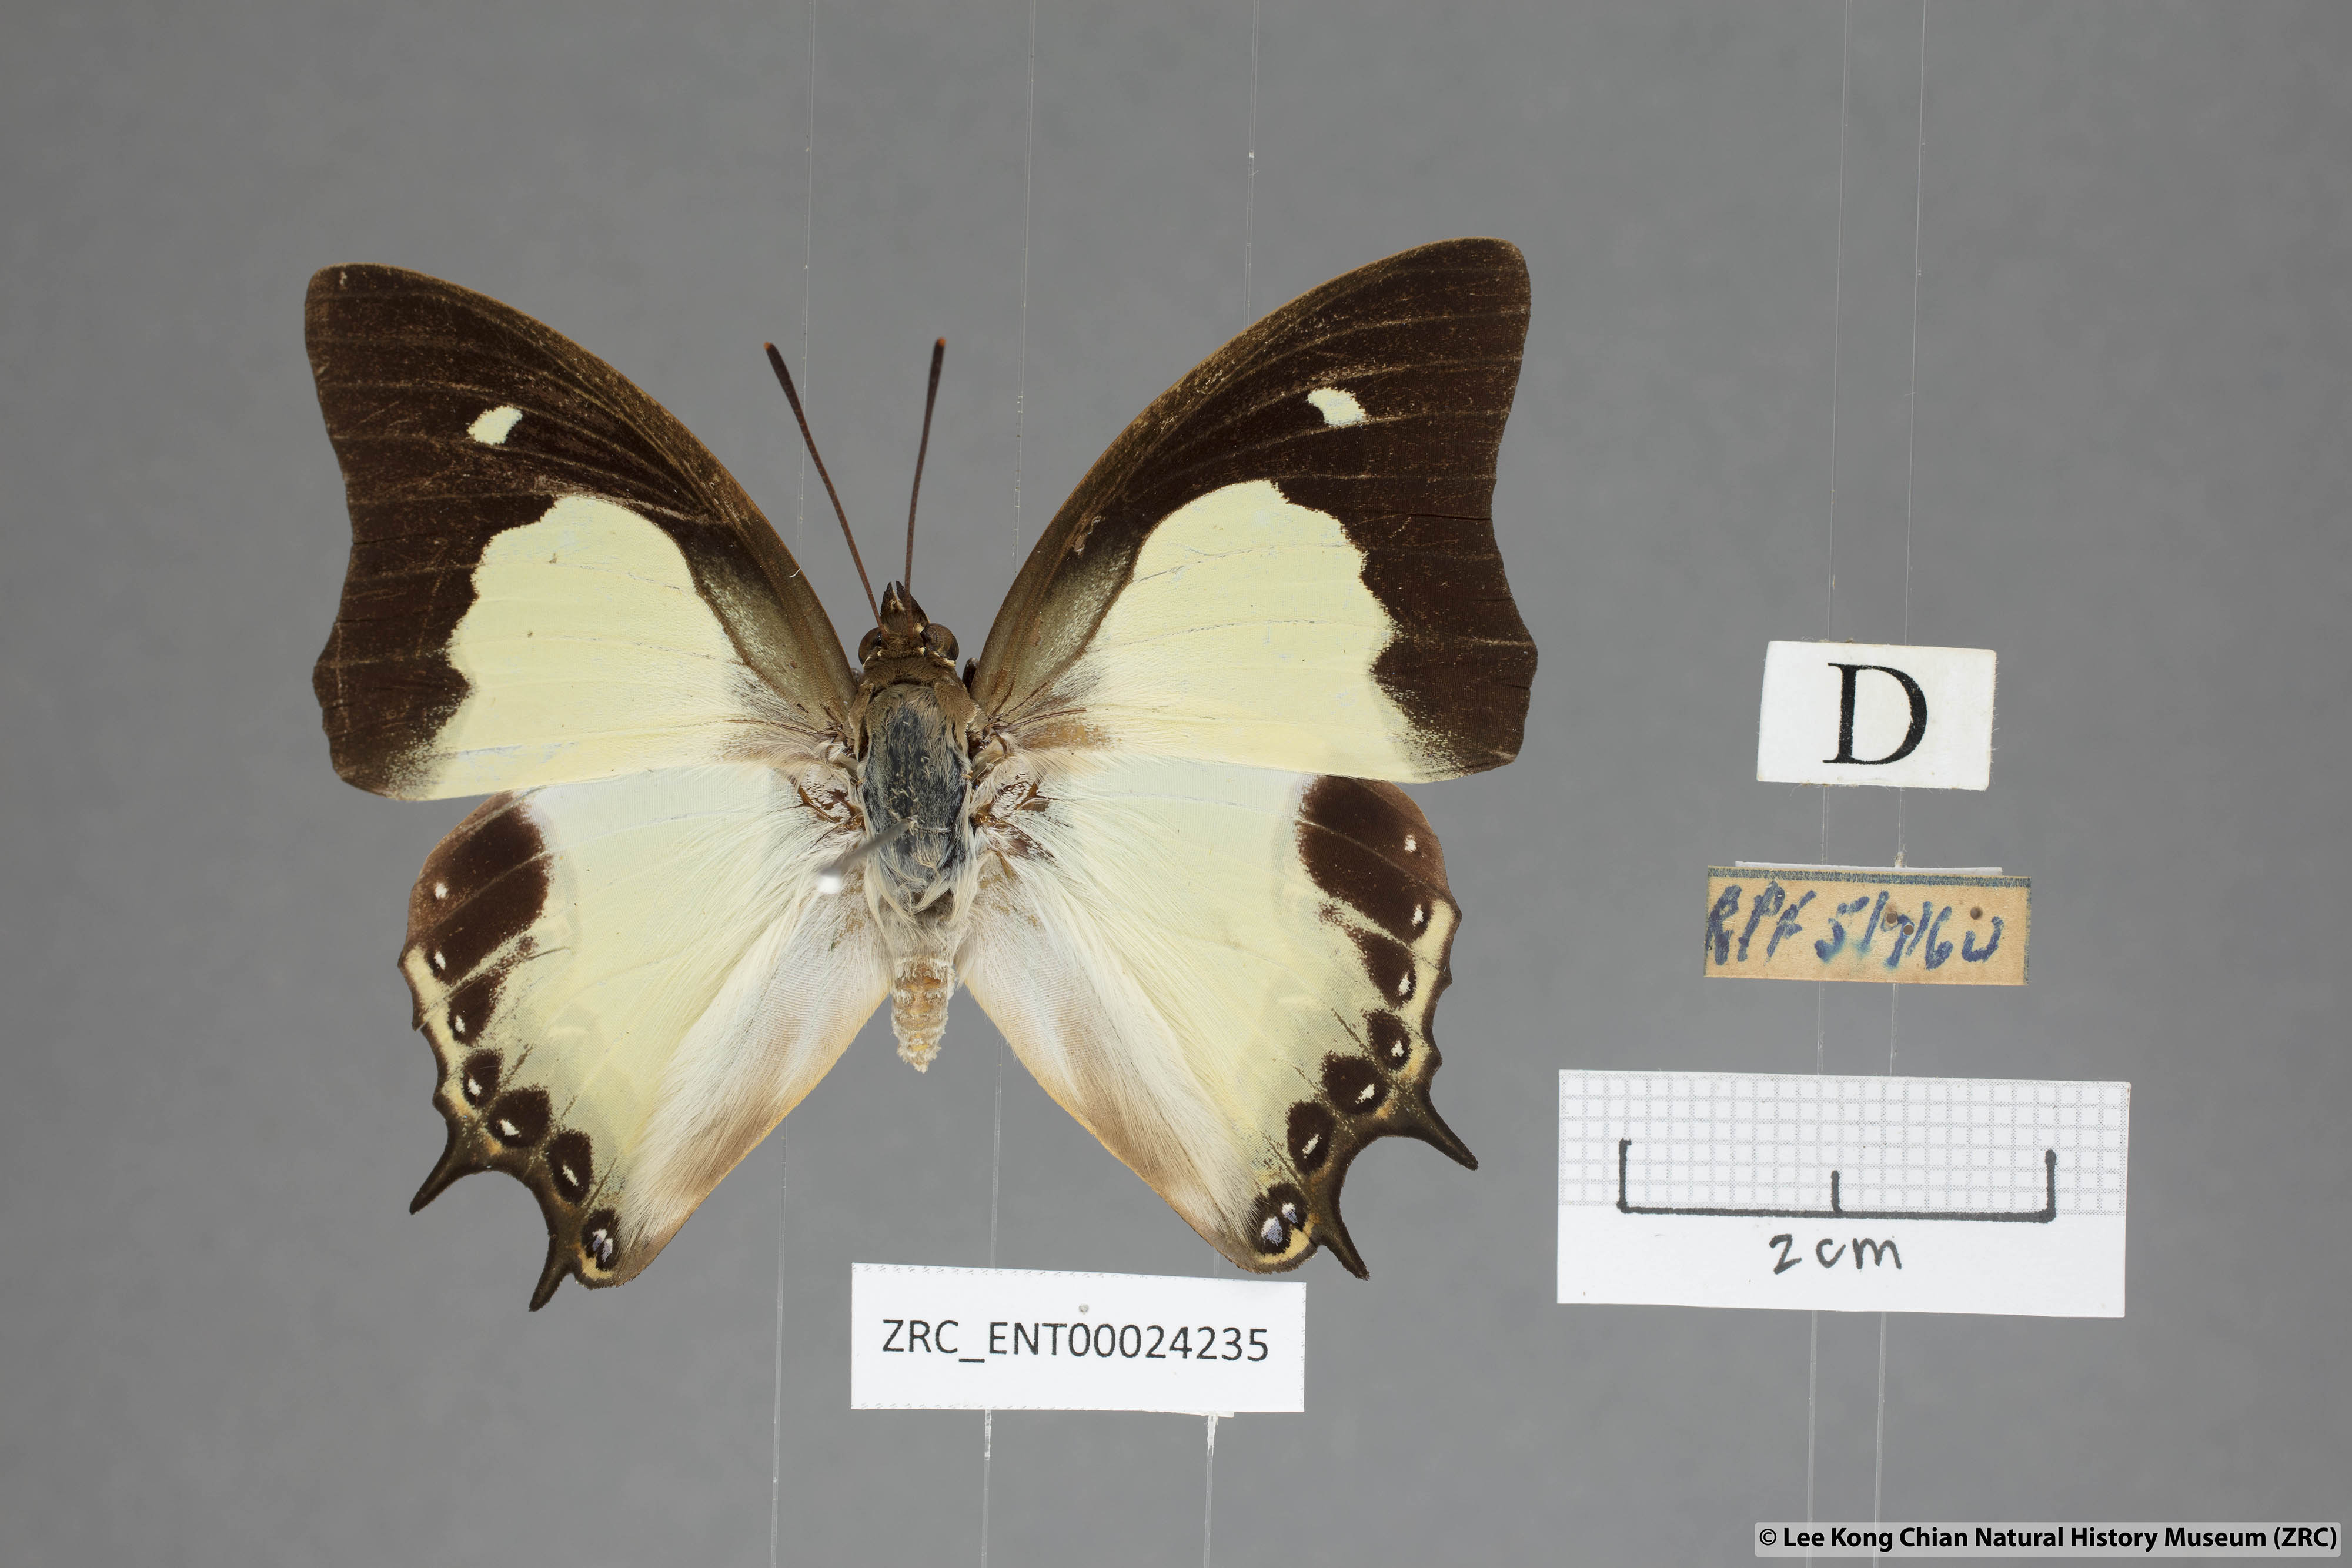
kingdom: Animalia
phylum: Arthropoda
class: Insecta
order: Lepidoptera
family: Nymphalidae
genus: Polyura
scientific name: Polyura moori
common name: Malayan nawab
